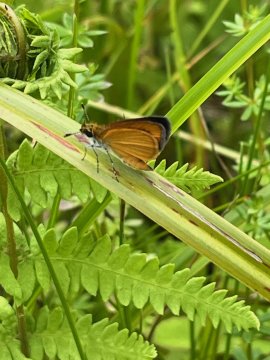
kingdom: Animalia
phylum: Arthropoda
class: Insecta
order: Lepidoptera
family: Hesperiidae
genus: Ancyloxypha
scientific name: Ancyloxypha numitor
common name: Least Skipper
